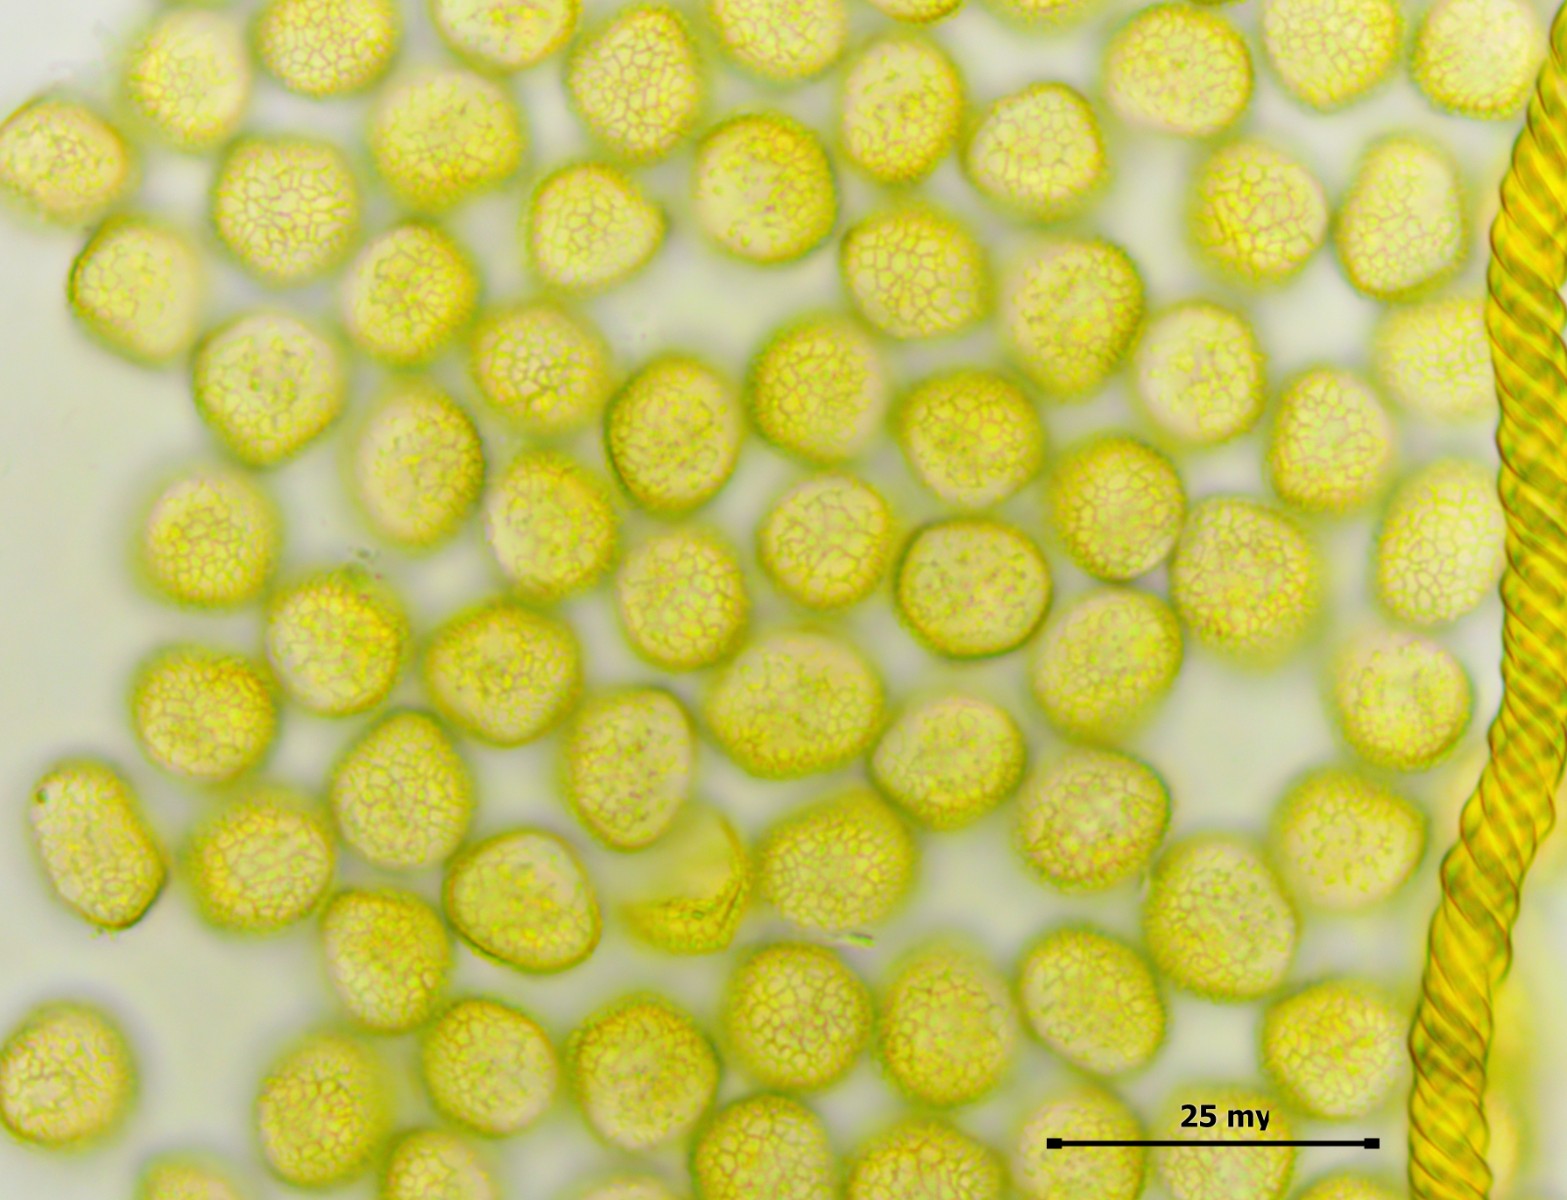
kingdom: Protozoa
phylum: Mycetozoa
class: Myxomycetes
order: Trichiales
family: Arcyriaceae
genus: Hemitrichia
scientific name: Hemitrichia decipiens
